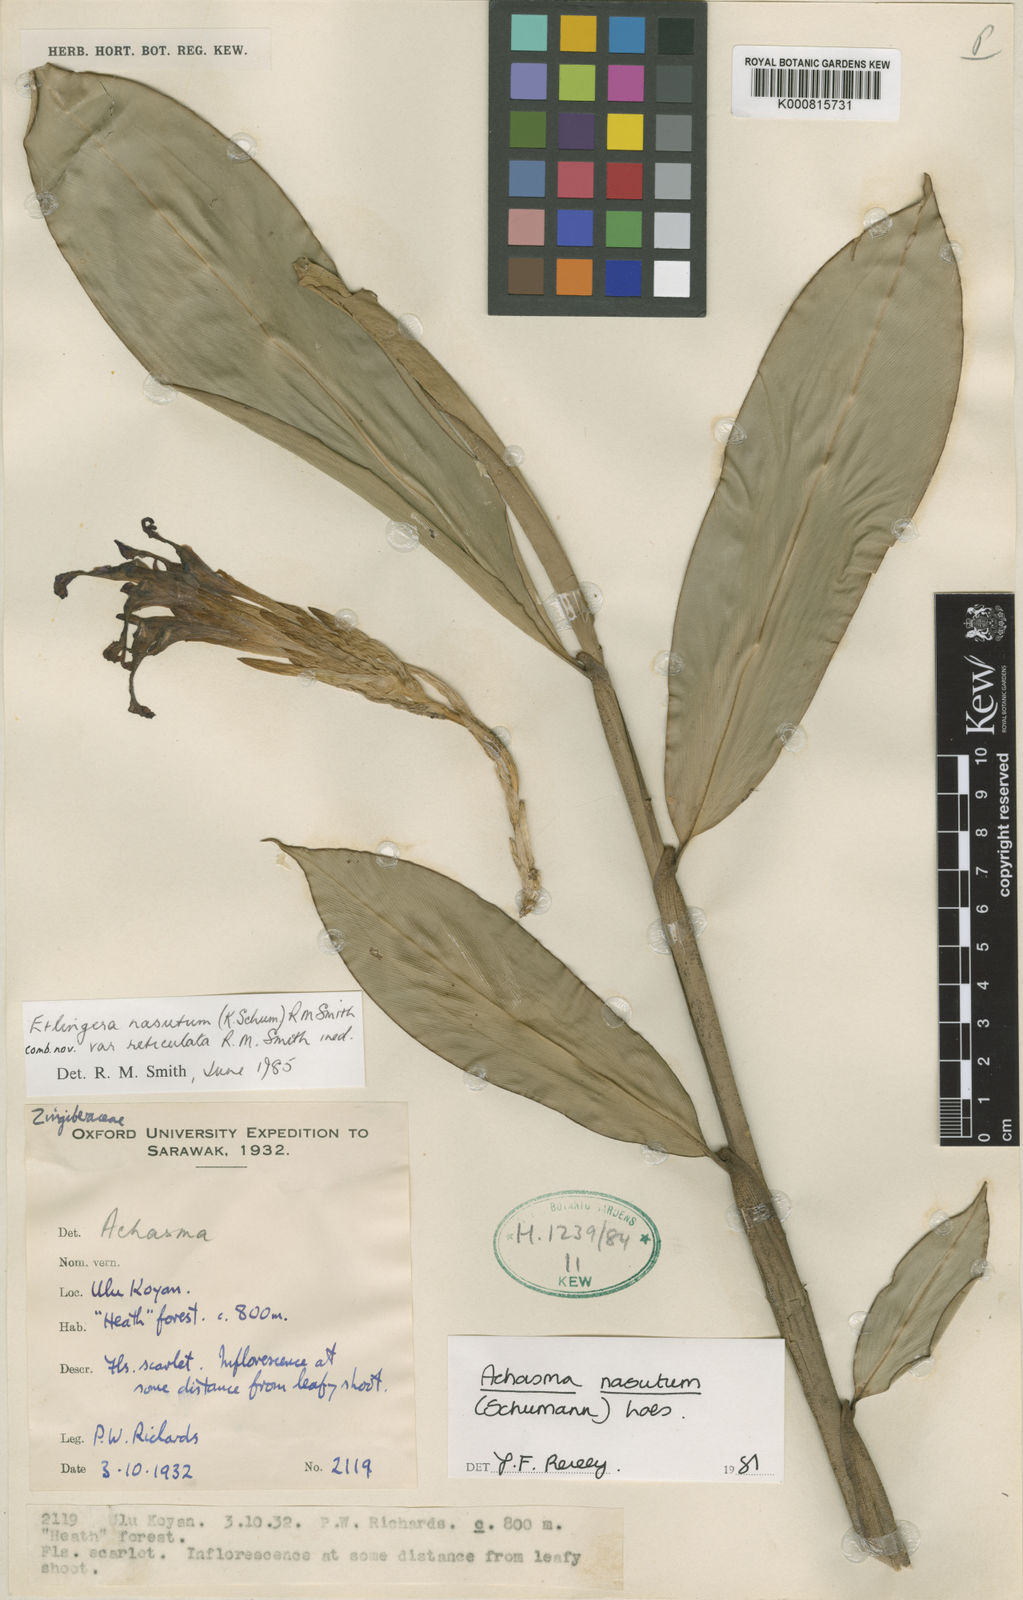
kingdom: Plantae
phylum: Tracheophyta
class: Liliopsida
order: Zingiberales
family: Zingiberaceae
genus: Etlingera
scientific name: Etlingera nasuta
